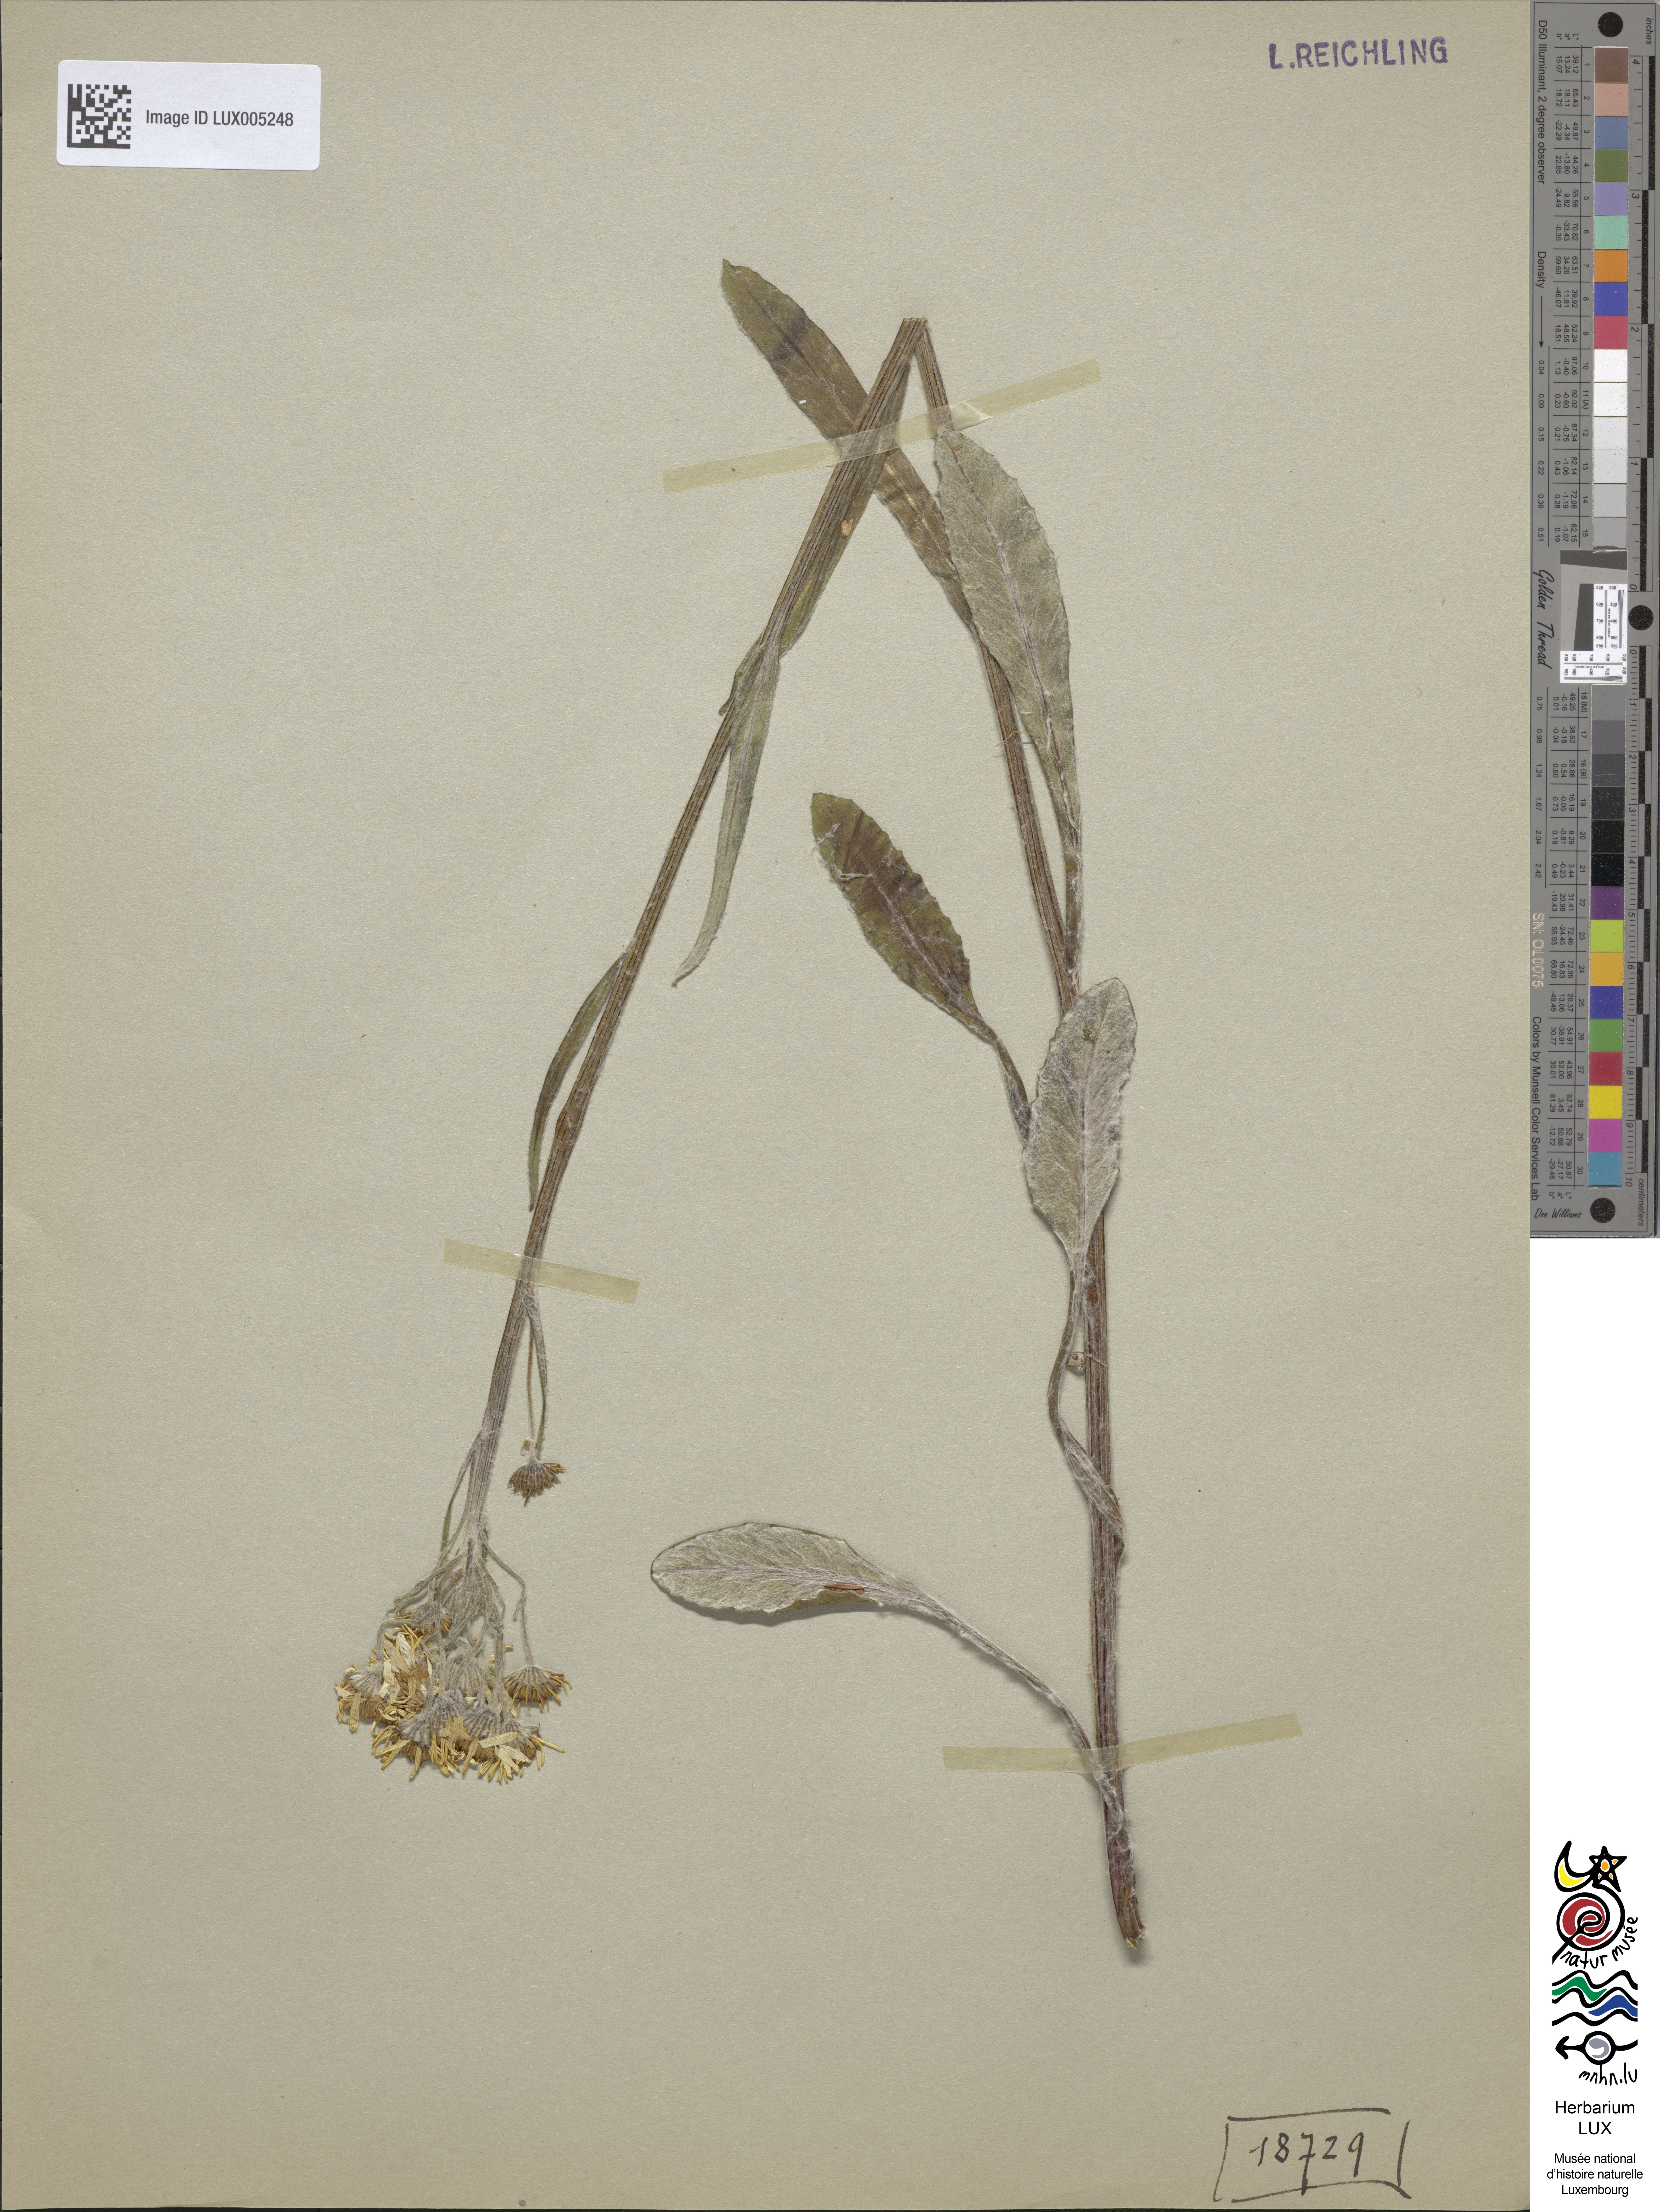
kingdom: Plantae
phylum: Tracheophyta
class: Magnoliopsida
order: Asterales
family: Asteraceae
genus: Tephroseris
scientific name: Tephroseris helenitis
